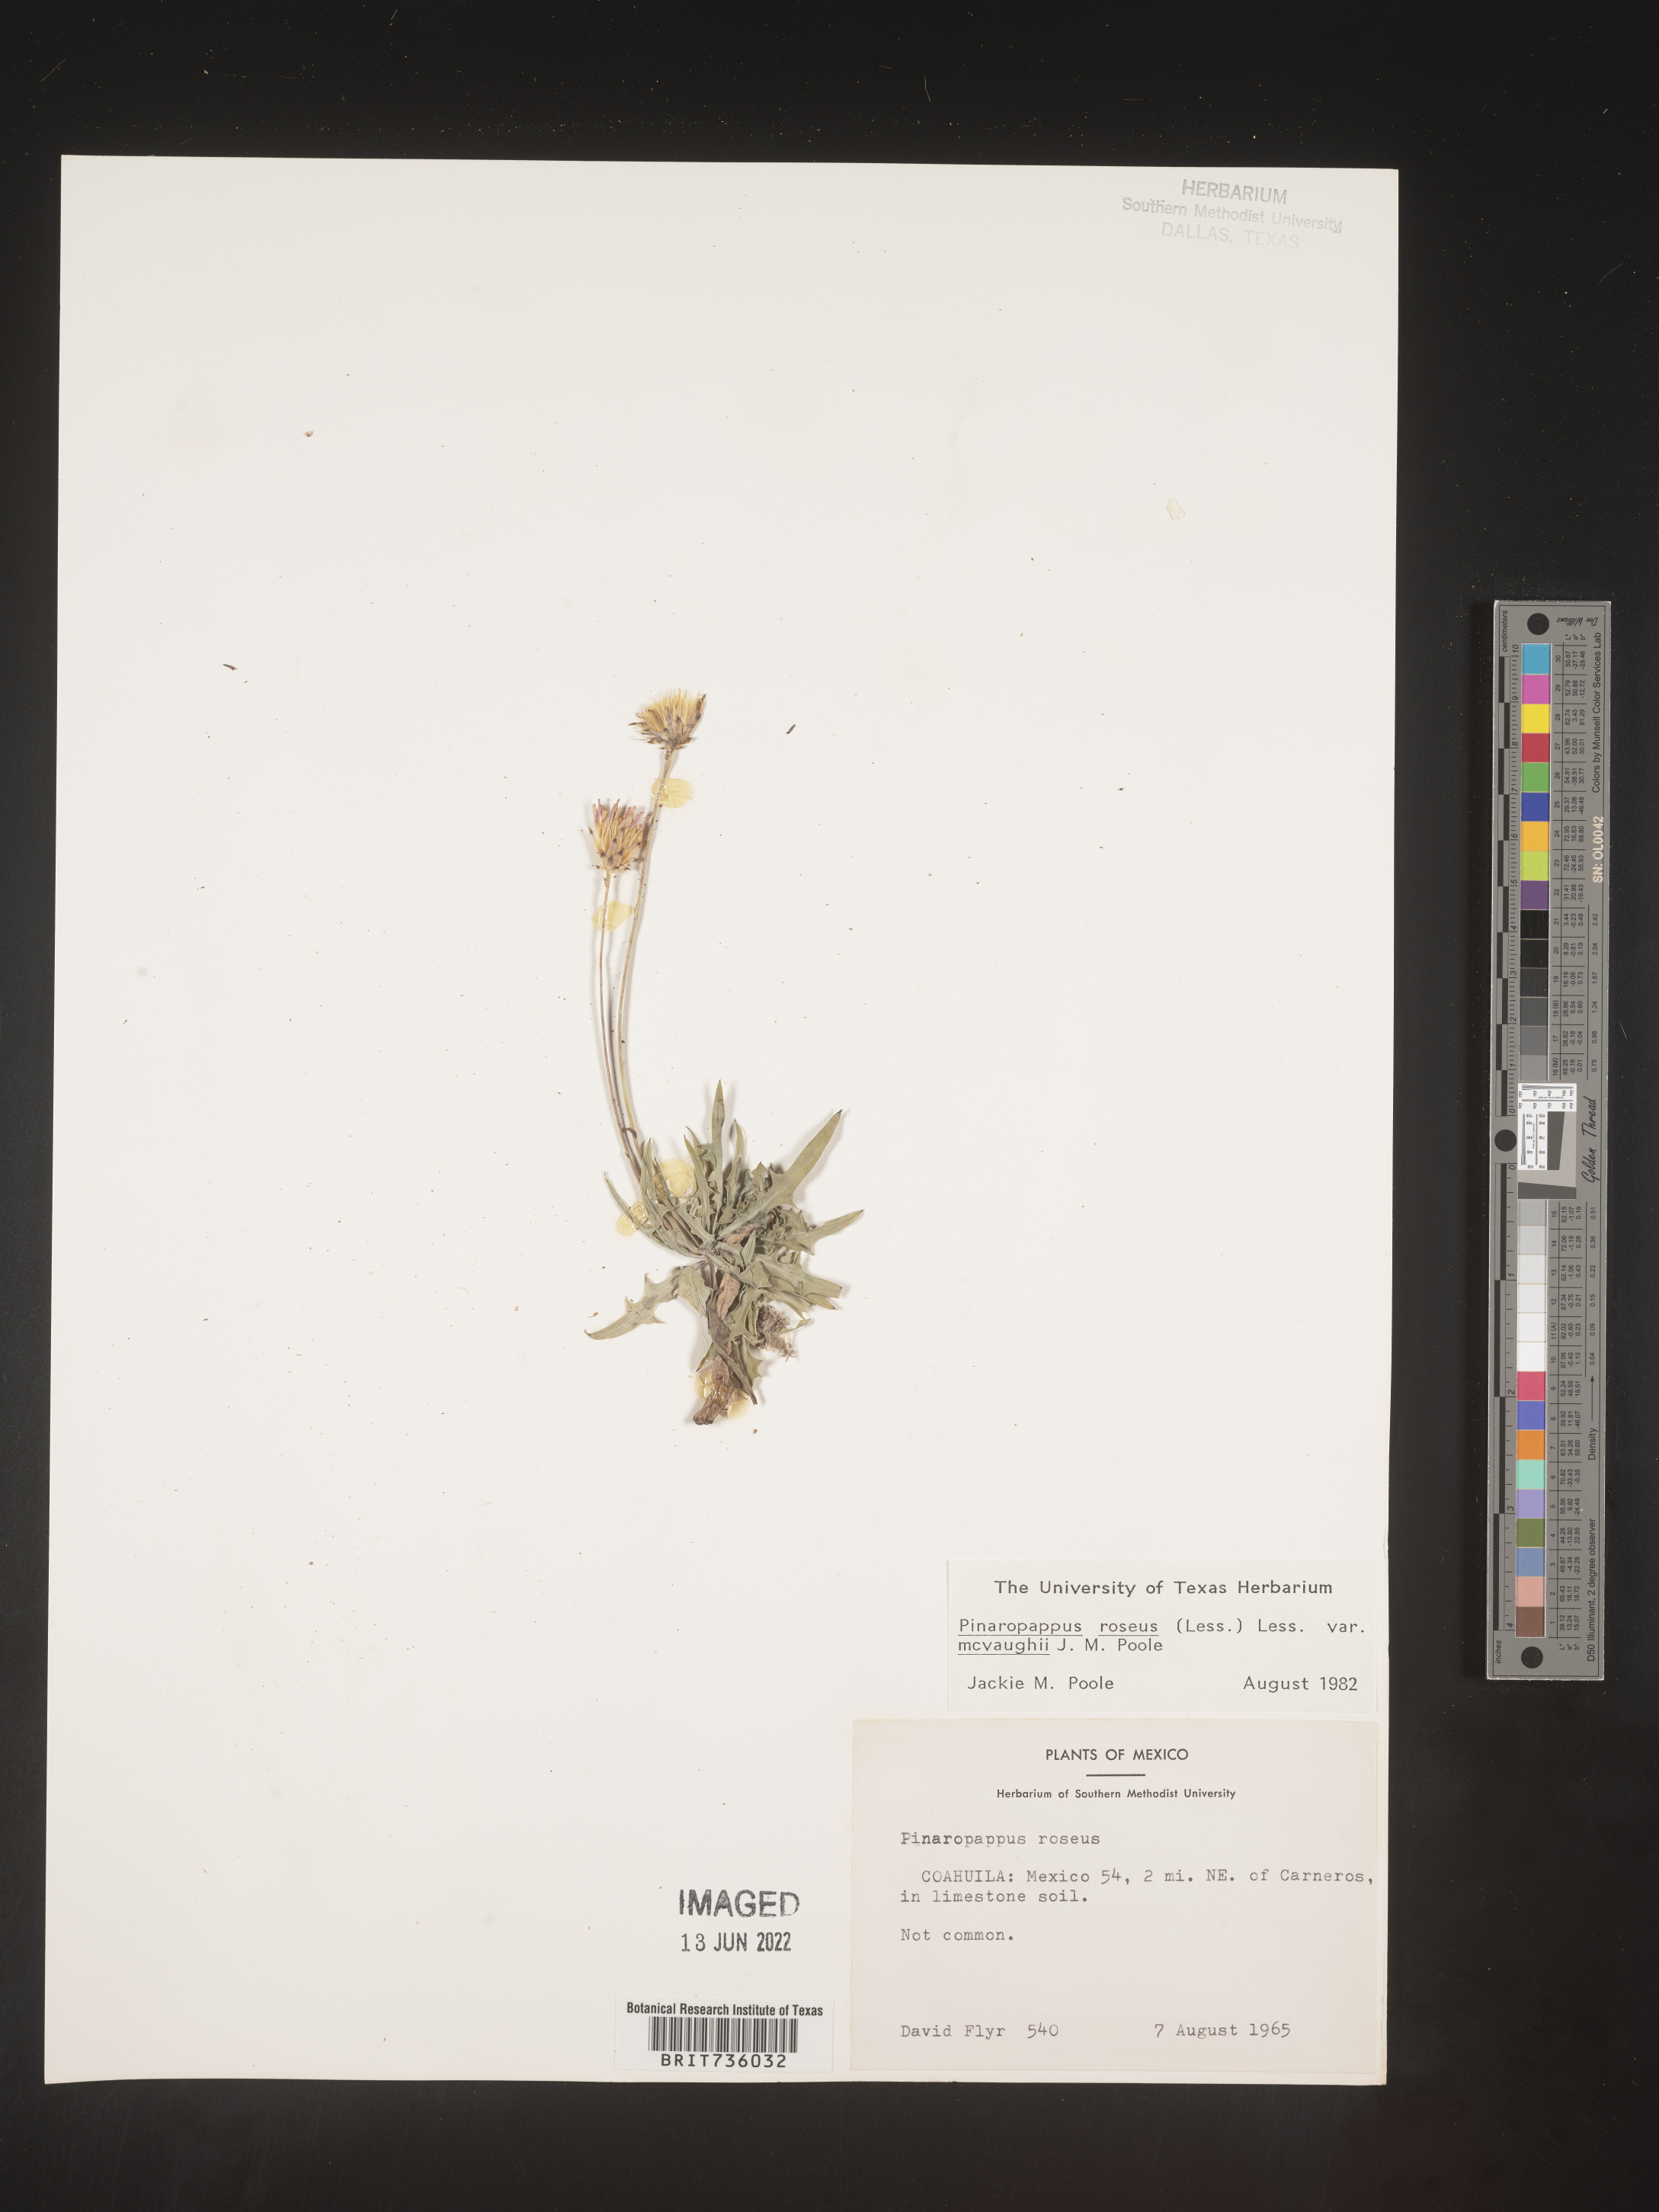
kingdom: Plantae
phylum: Tracheophyta
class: Magnoliopsida
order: Asterales
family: Asteraceae
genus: Pinaropappus
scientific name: Pinaropappus
